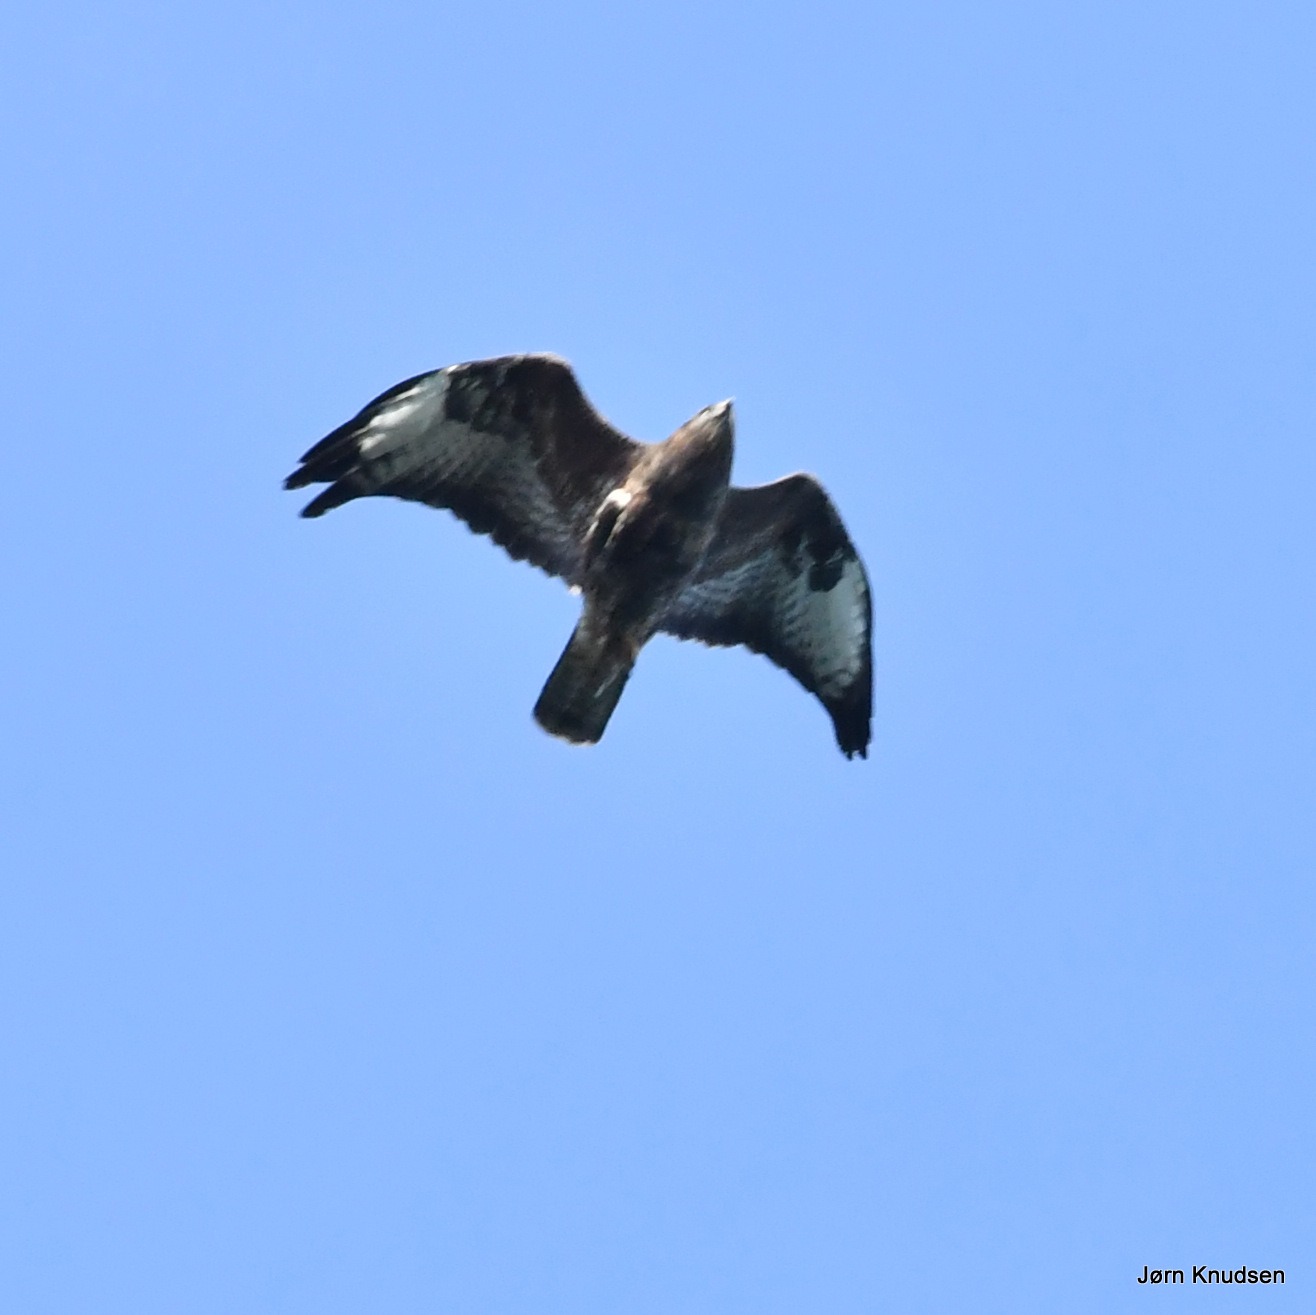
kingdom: Animalia
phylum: Chordata
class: Aves
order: Accipitriformes
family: Accipitridae
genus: Buteo
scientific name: Buteo buteo
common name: Musvåge
